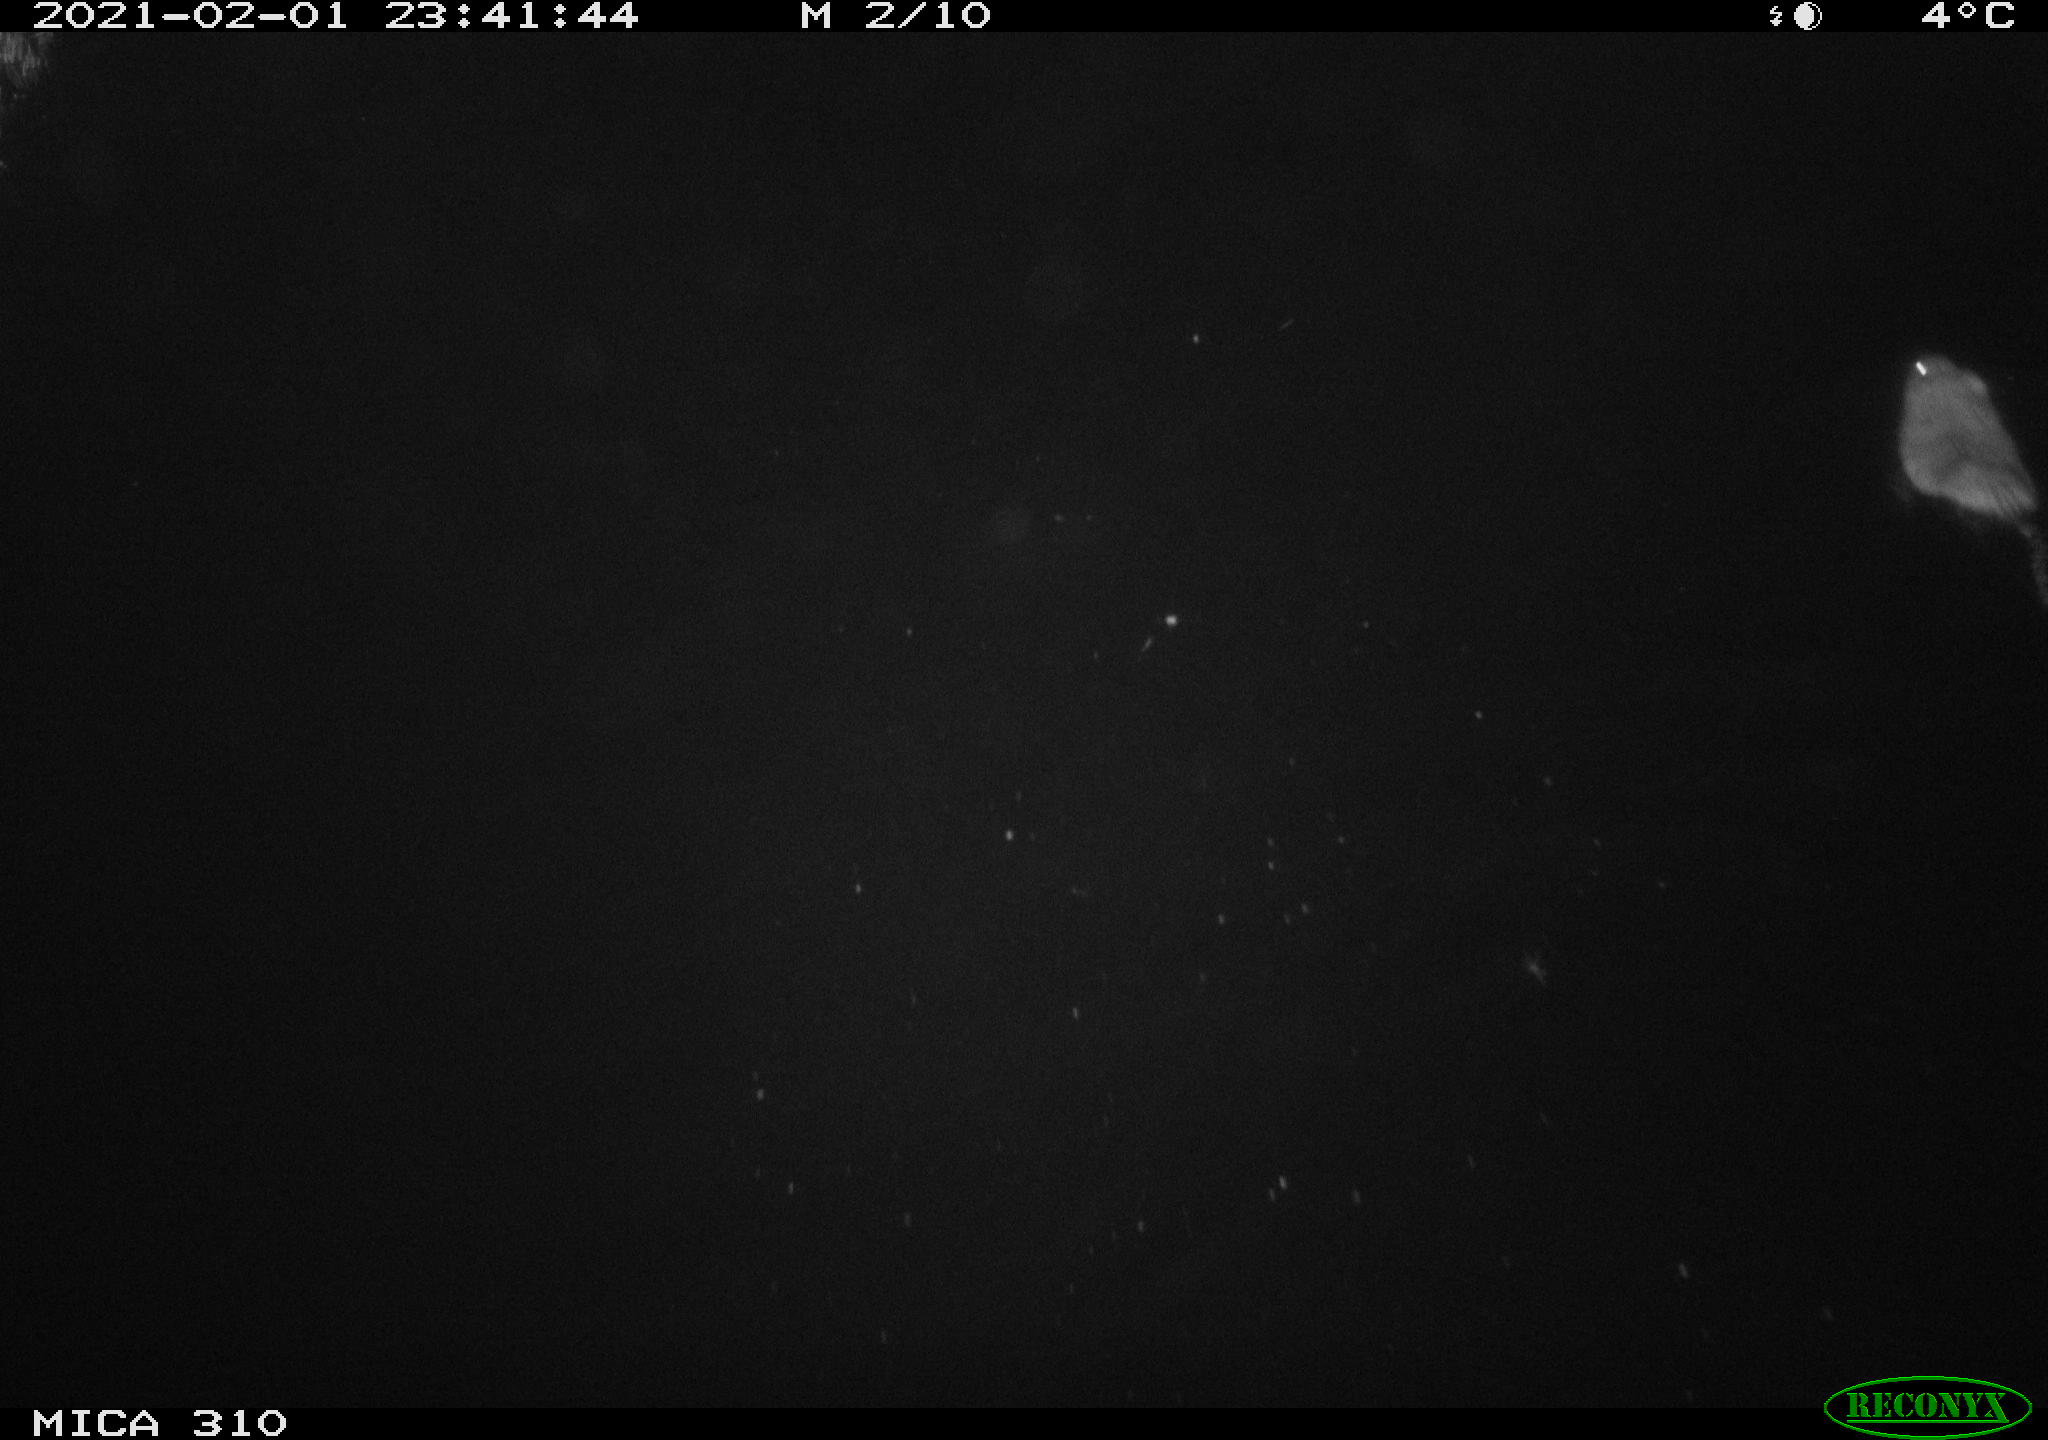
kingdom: Animalia
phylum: Chordata
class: Mammalia
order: Rodentia
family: Cricetidae
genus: Ondatra
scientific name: Ondatra zibethicus
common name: Muskrat
